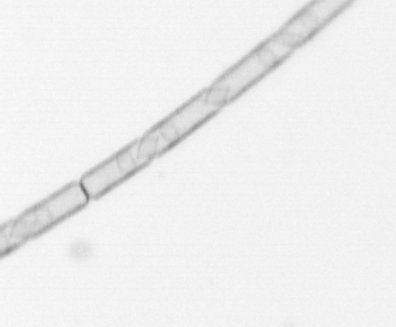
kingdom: Chromista
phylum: Ochrophyta
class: Bacillariophyceae
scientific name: Bacillariophyceae
